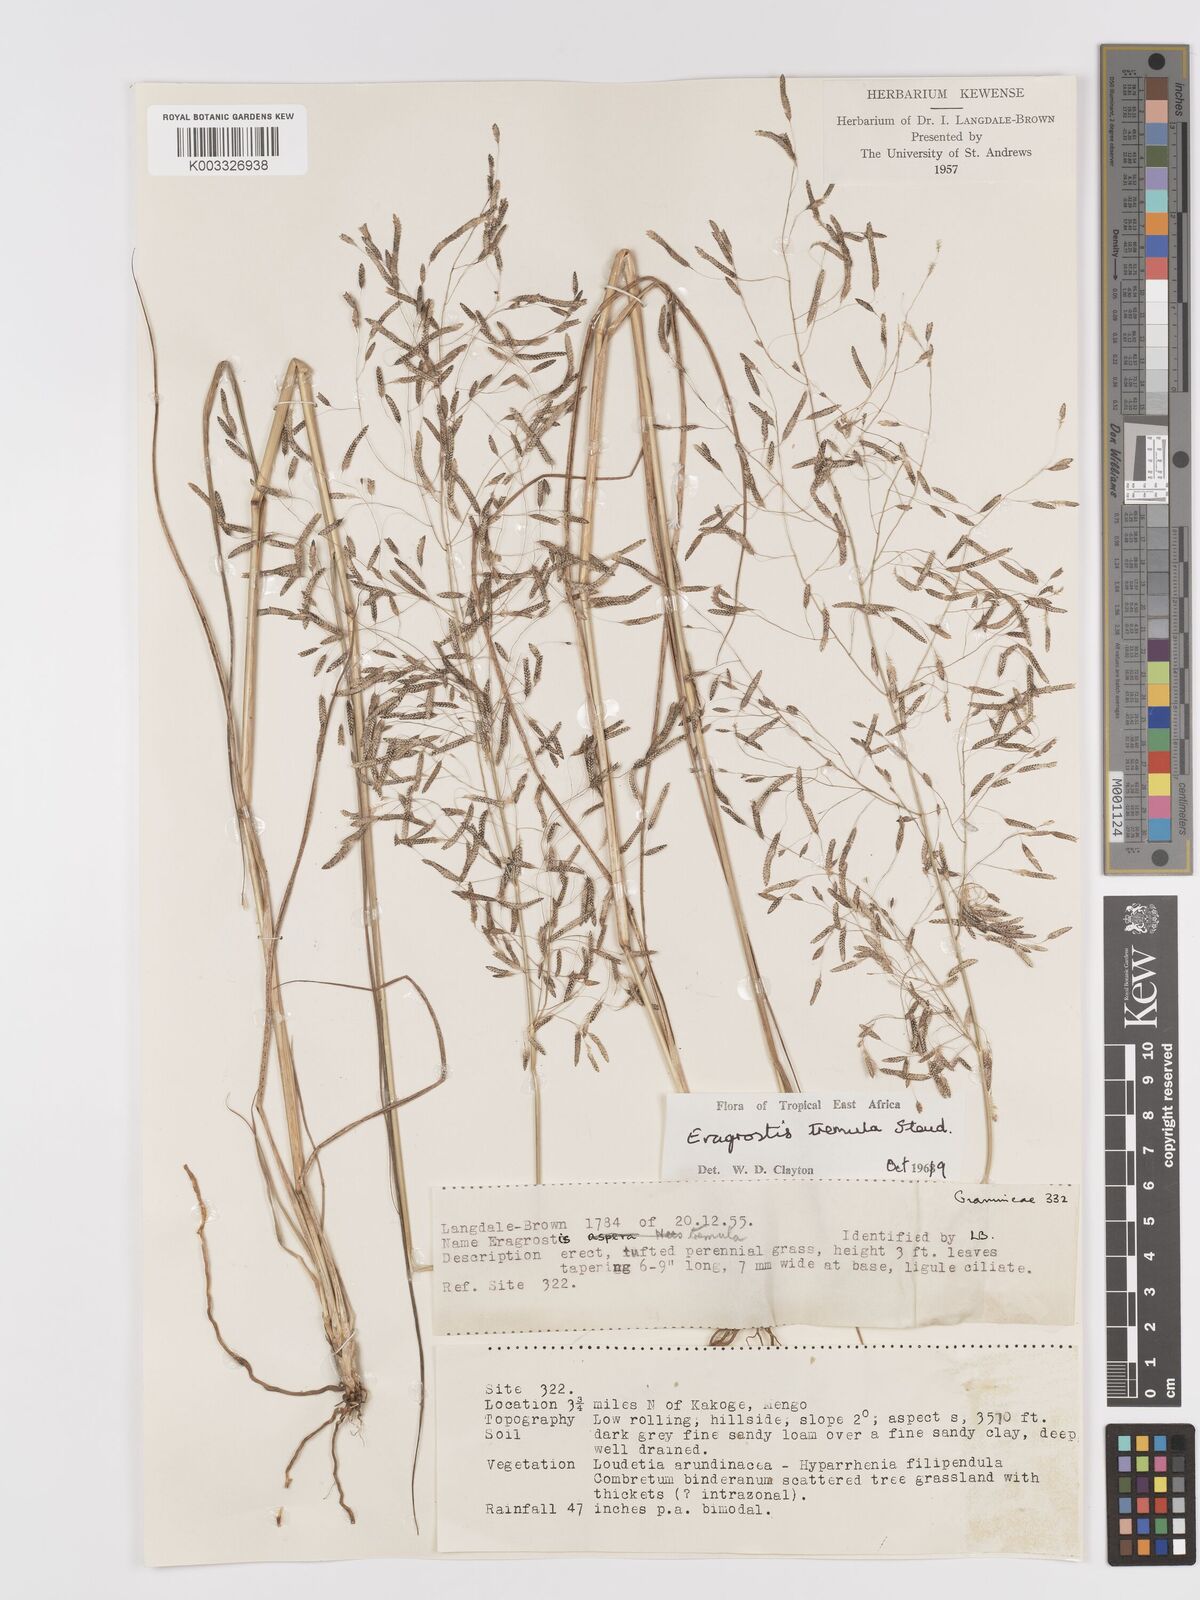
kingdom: Plantae
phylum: Tracheophyta
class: Liliopsida
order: Poales
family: Poaceae
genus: Eragrostis
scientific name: Eragrostis tremula
